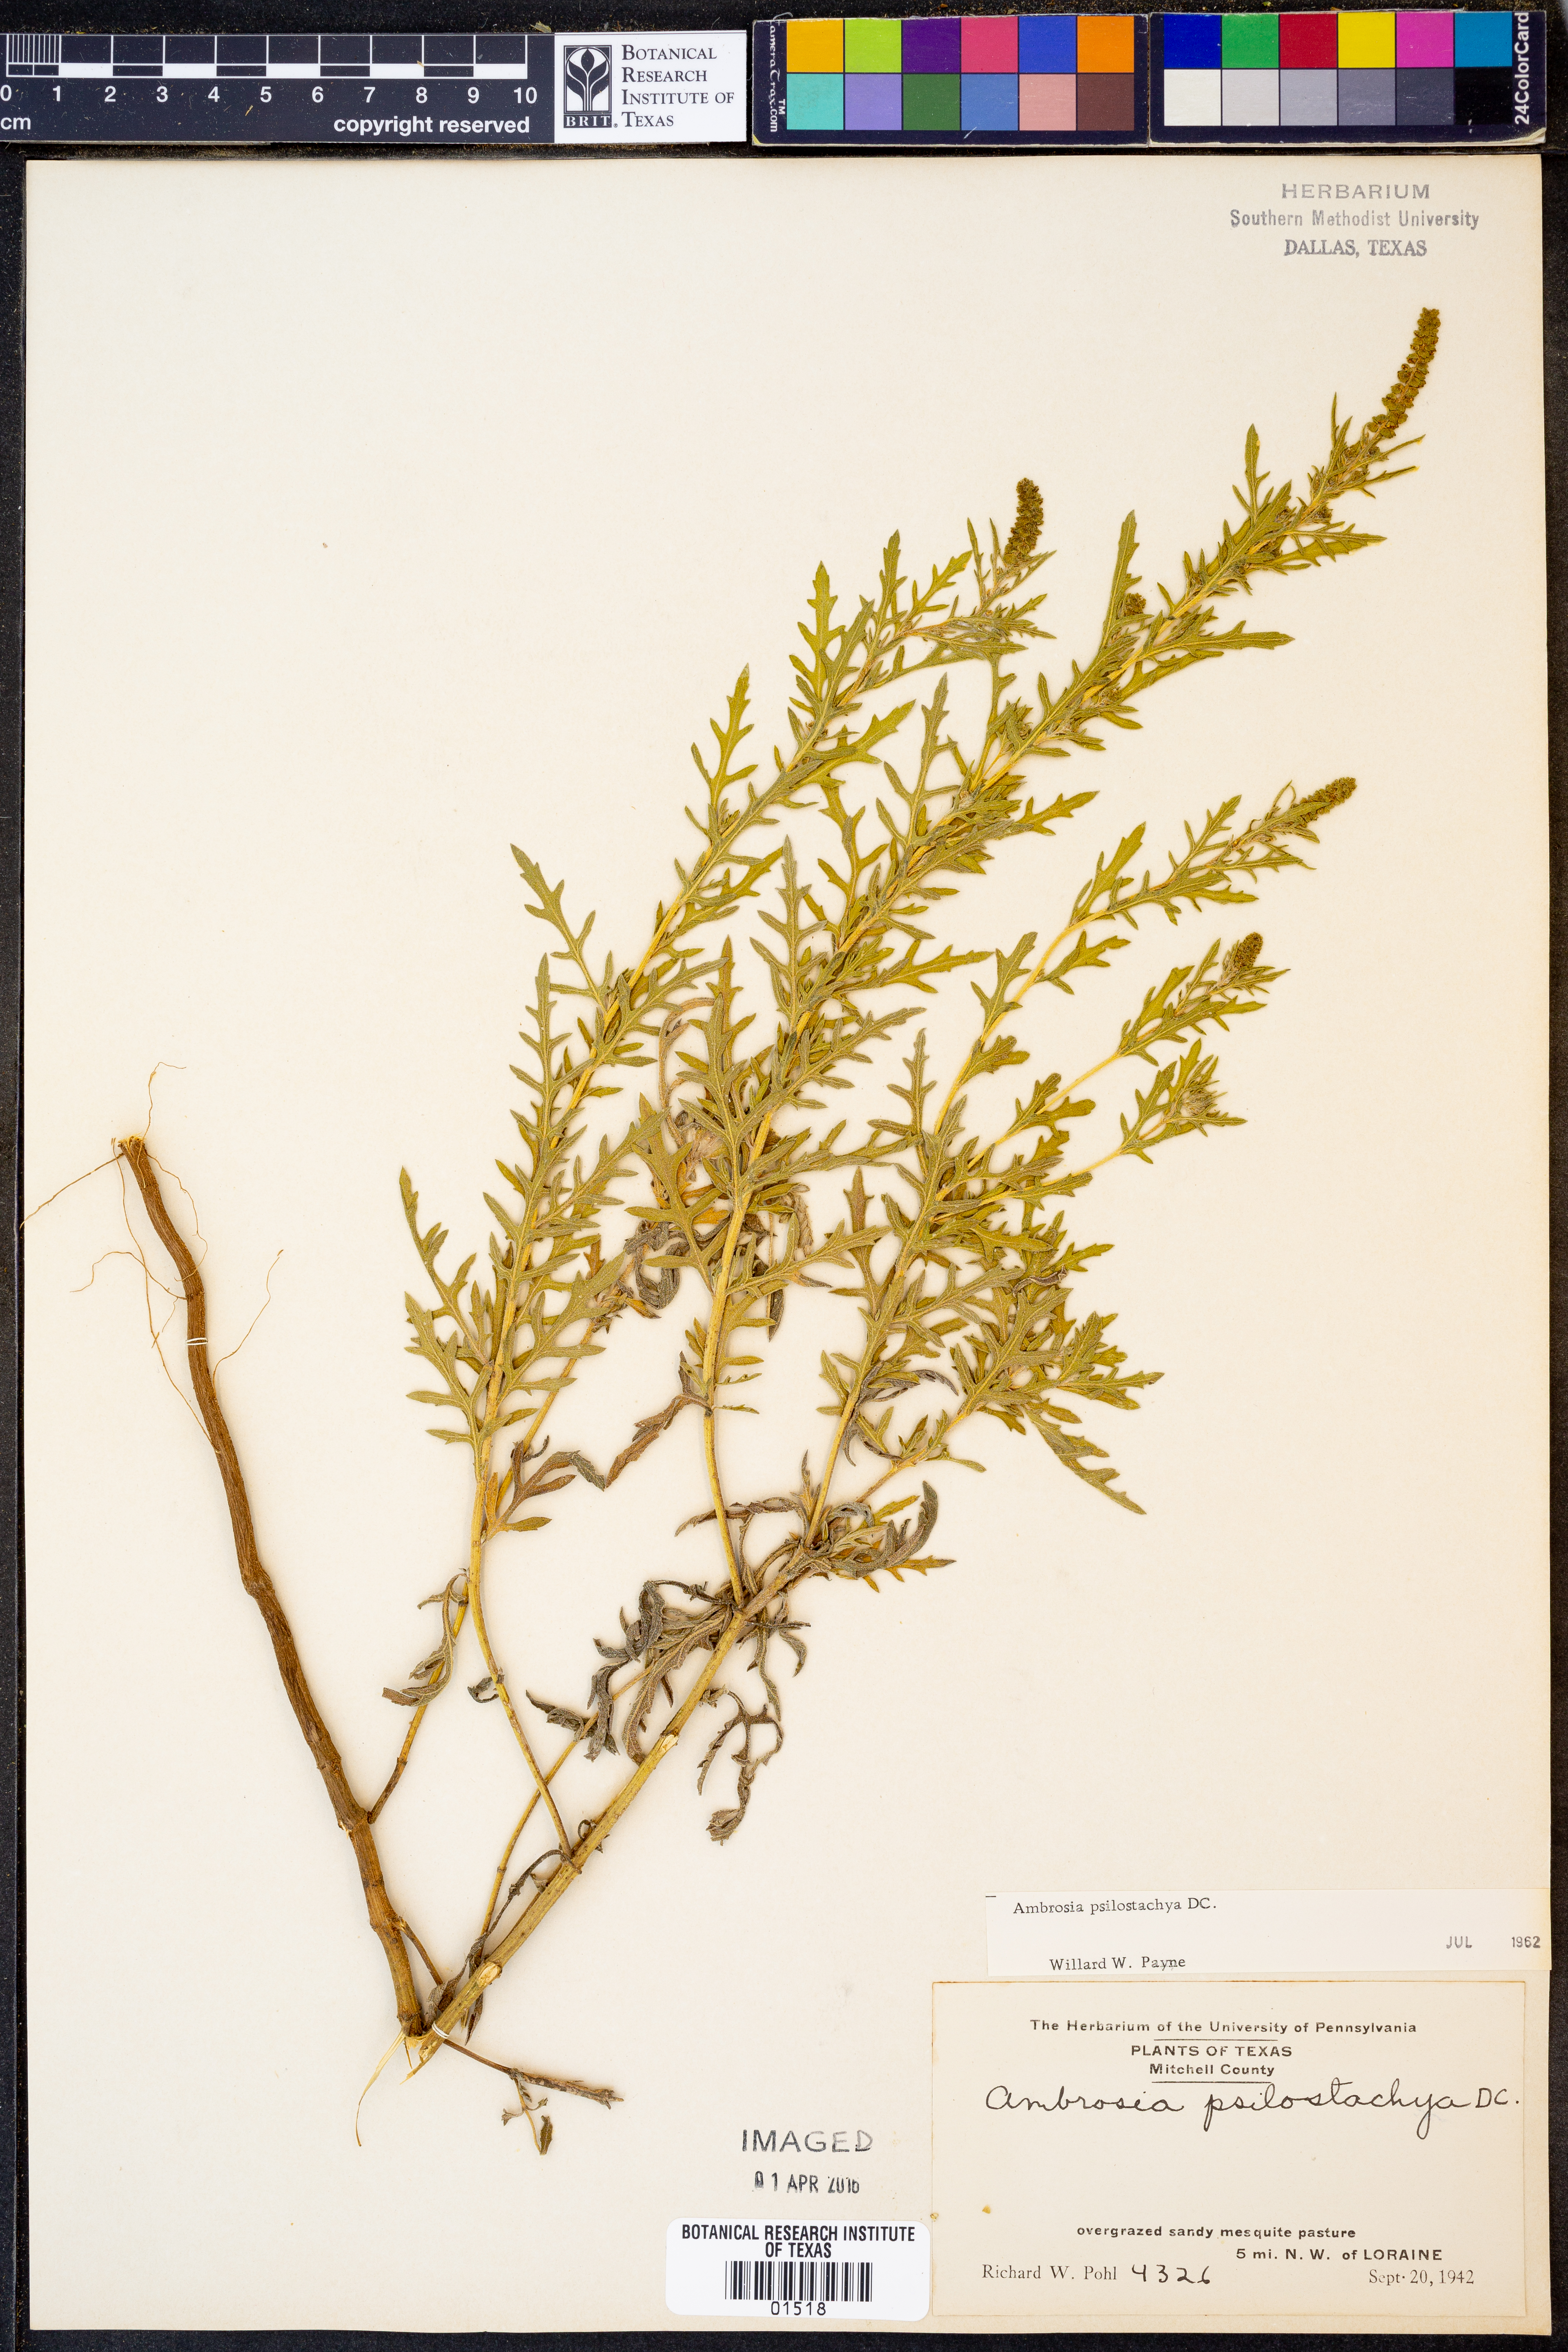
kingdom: Plantae
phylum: Tracheophyta
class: Magnoliopsida
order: Asterales
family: Asteraceae
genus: Ambrosia
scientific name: Ambrosia psilostachya
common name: Perennial ragweed
